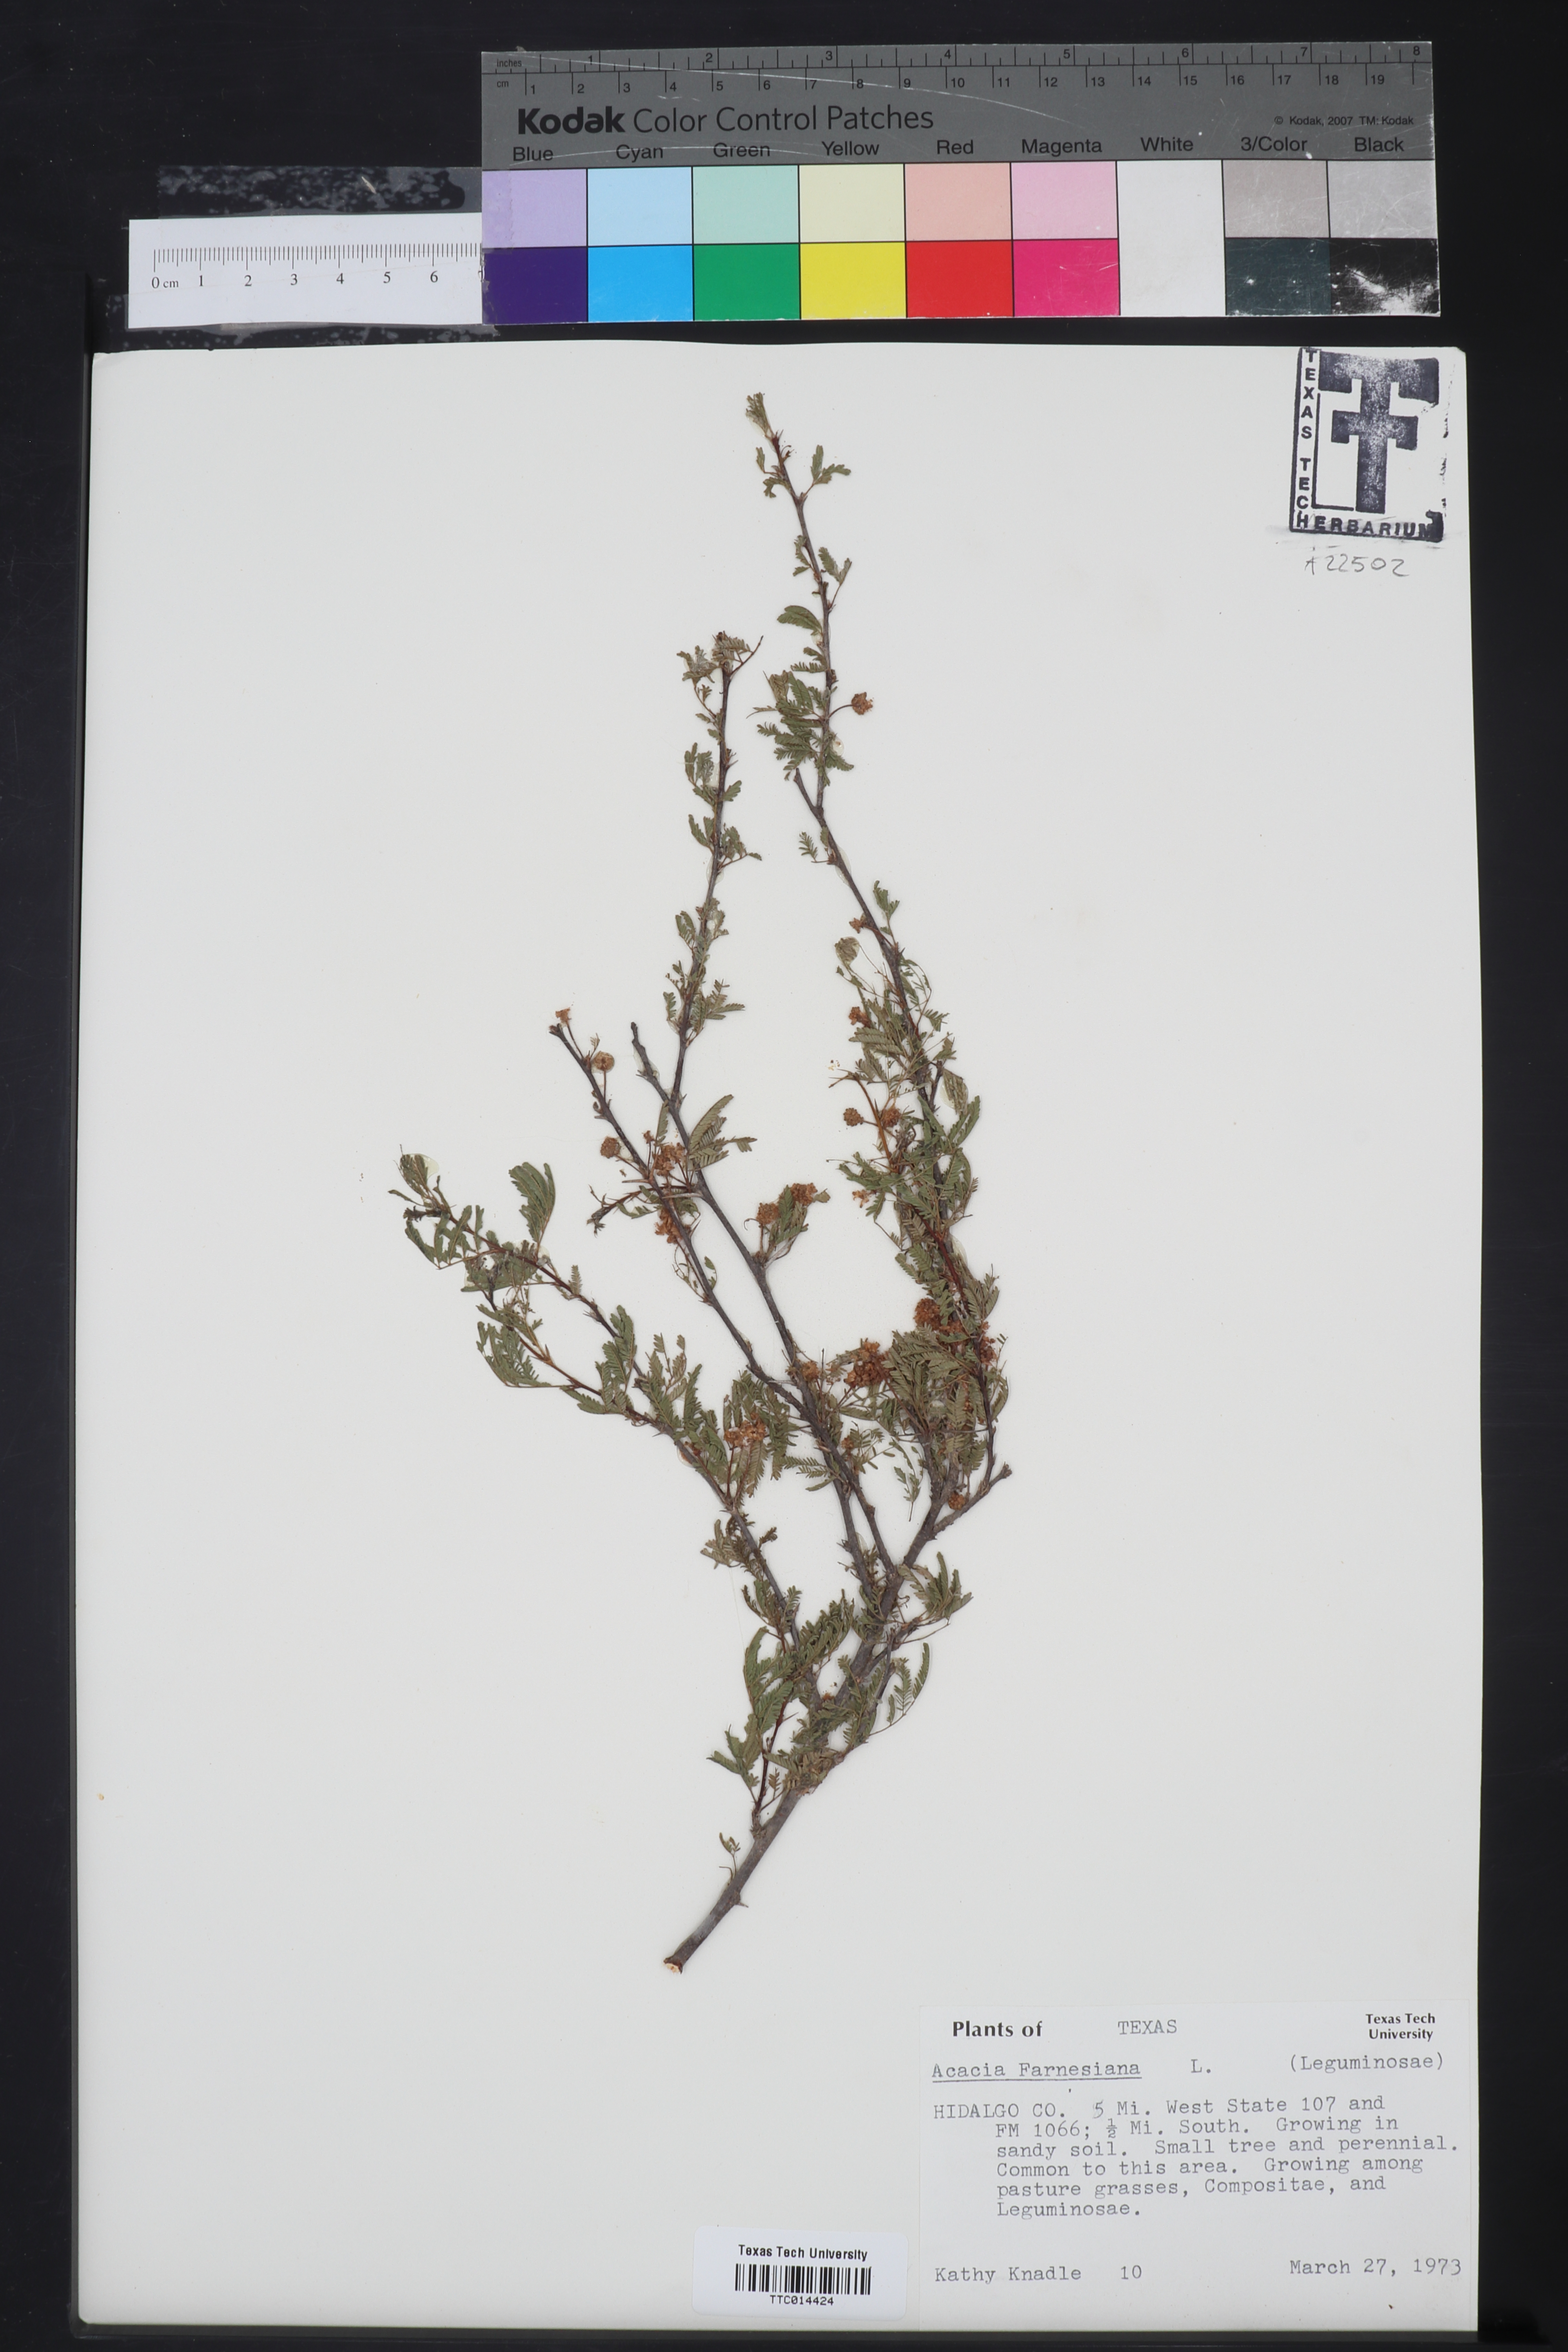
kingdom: Plantae
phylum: Tracheophyta
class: Magnoliopsida
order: Fabales
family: Fabaceae
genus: Vachellia
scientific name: Vachellia farnesiana
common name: Sweet acacia
